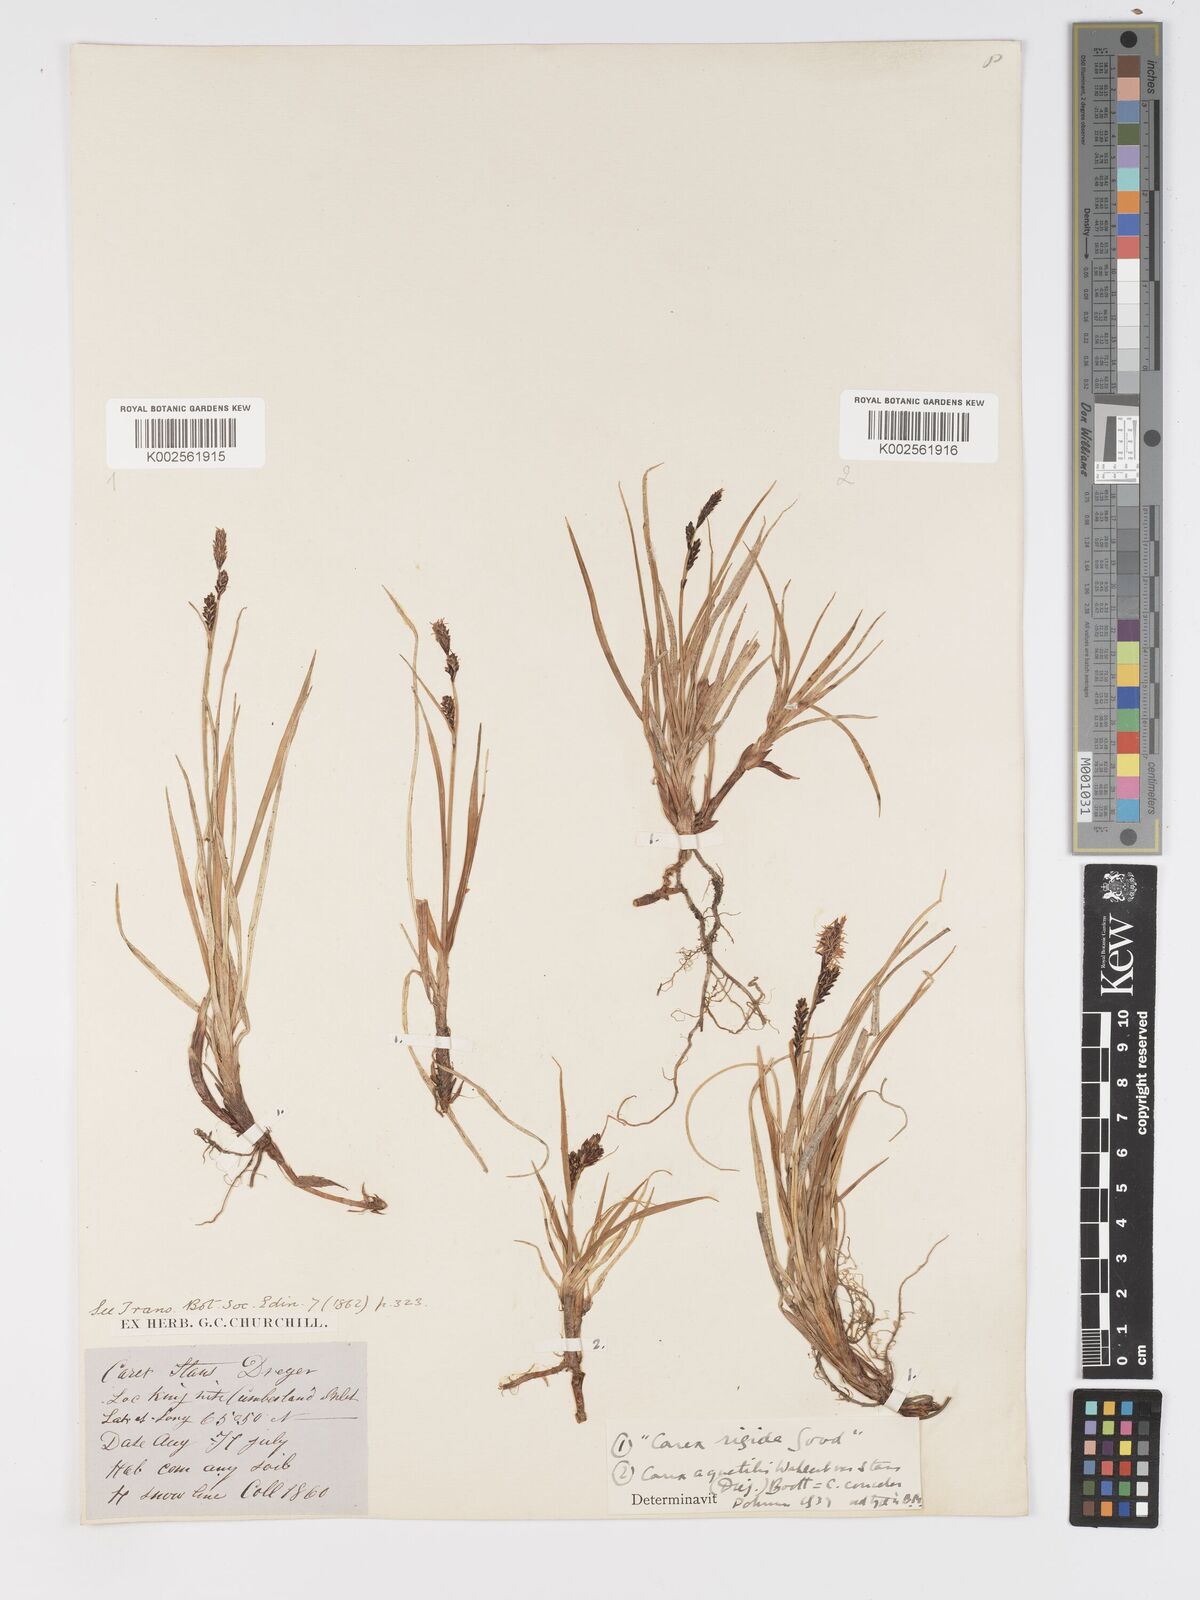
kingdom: Plantae
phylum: Tracheophyta
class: Liliopsida
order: Poales
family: Cyperaceae
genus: Carex
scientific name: Carex bigelowii
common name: Stiff sedge
